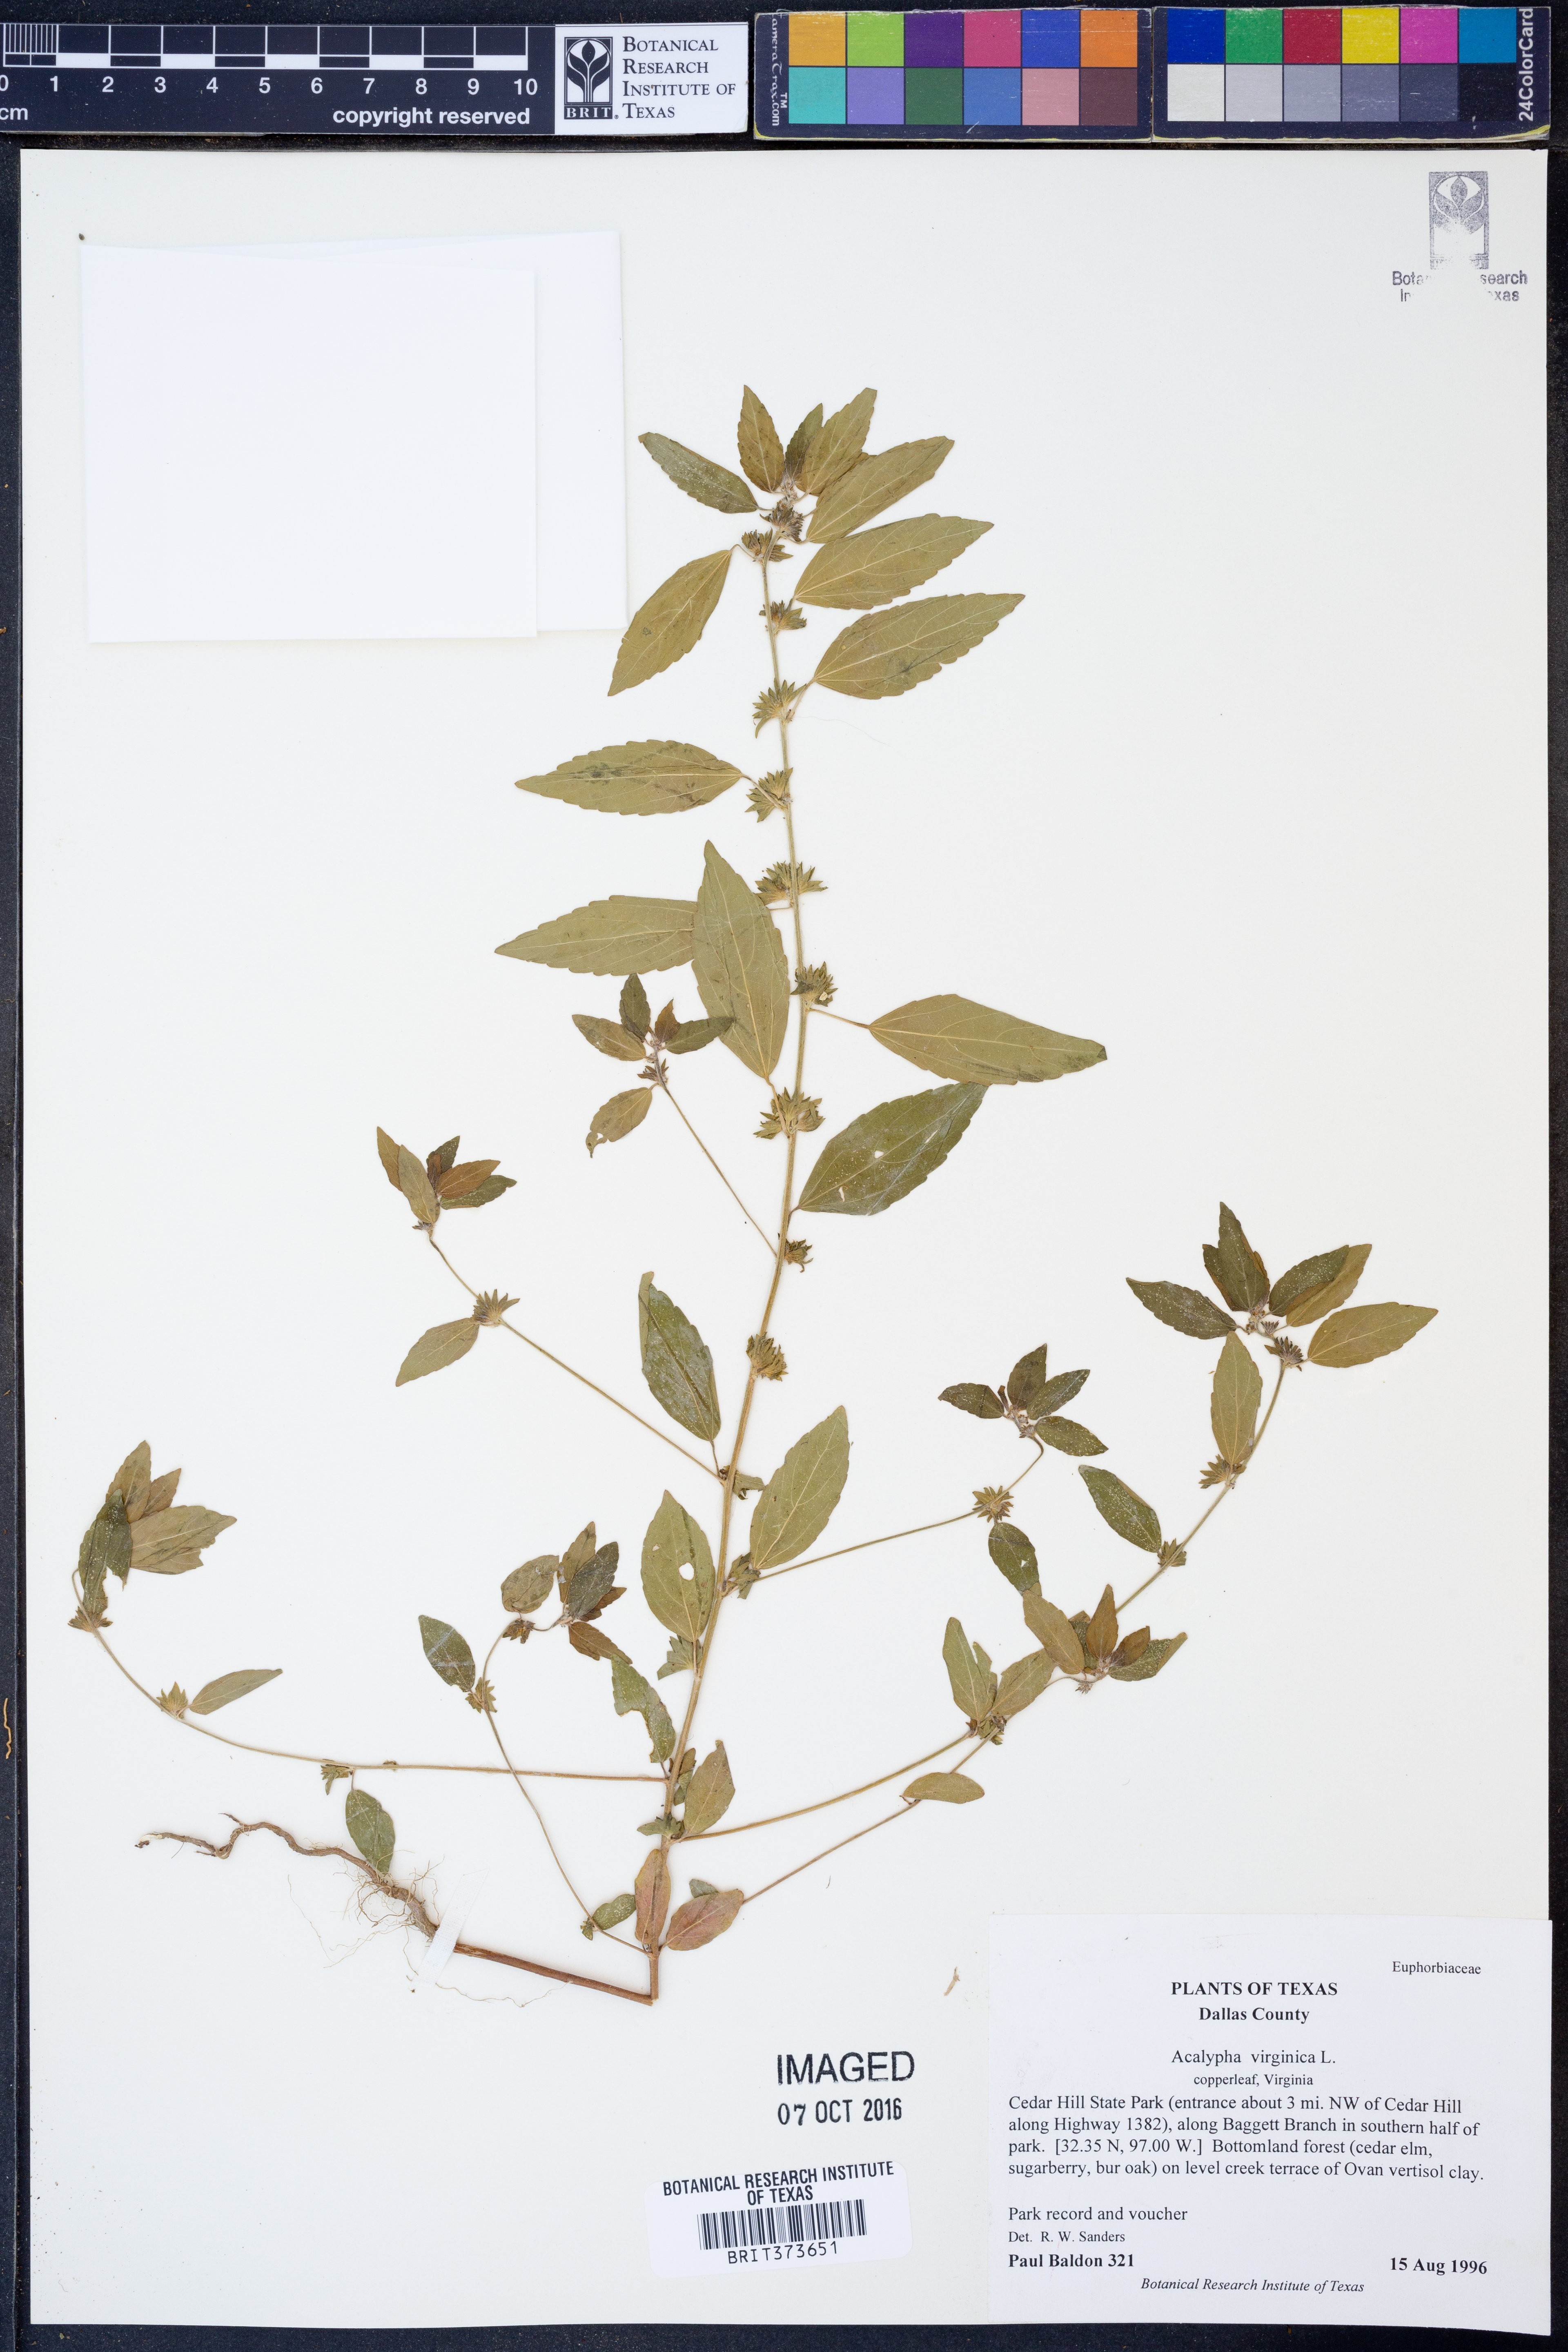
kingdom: Plantae
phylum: Tracheophyta
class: Magnoliopsida
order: Malpighiales
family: Euphorbiaceae
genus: Acalypha
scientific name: Acalypha virginica
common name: Virginia copperleaf
